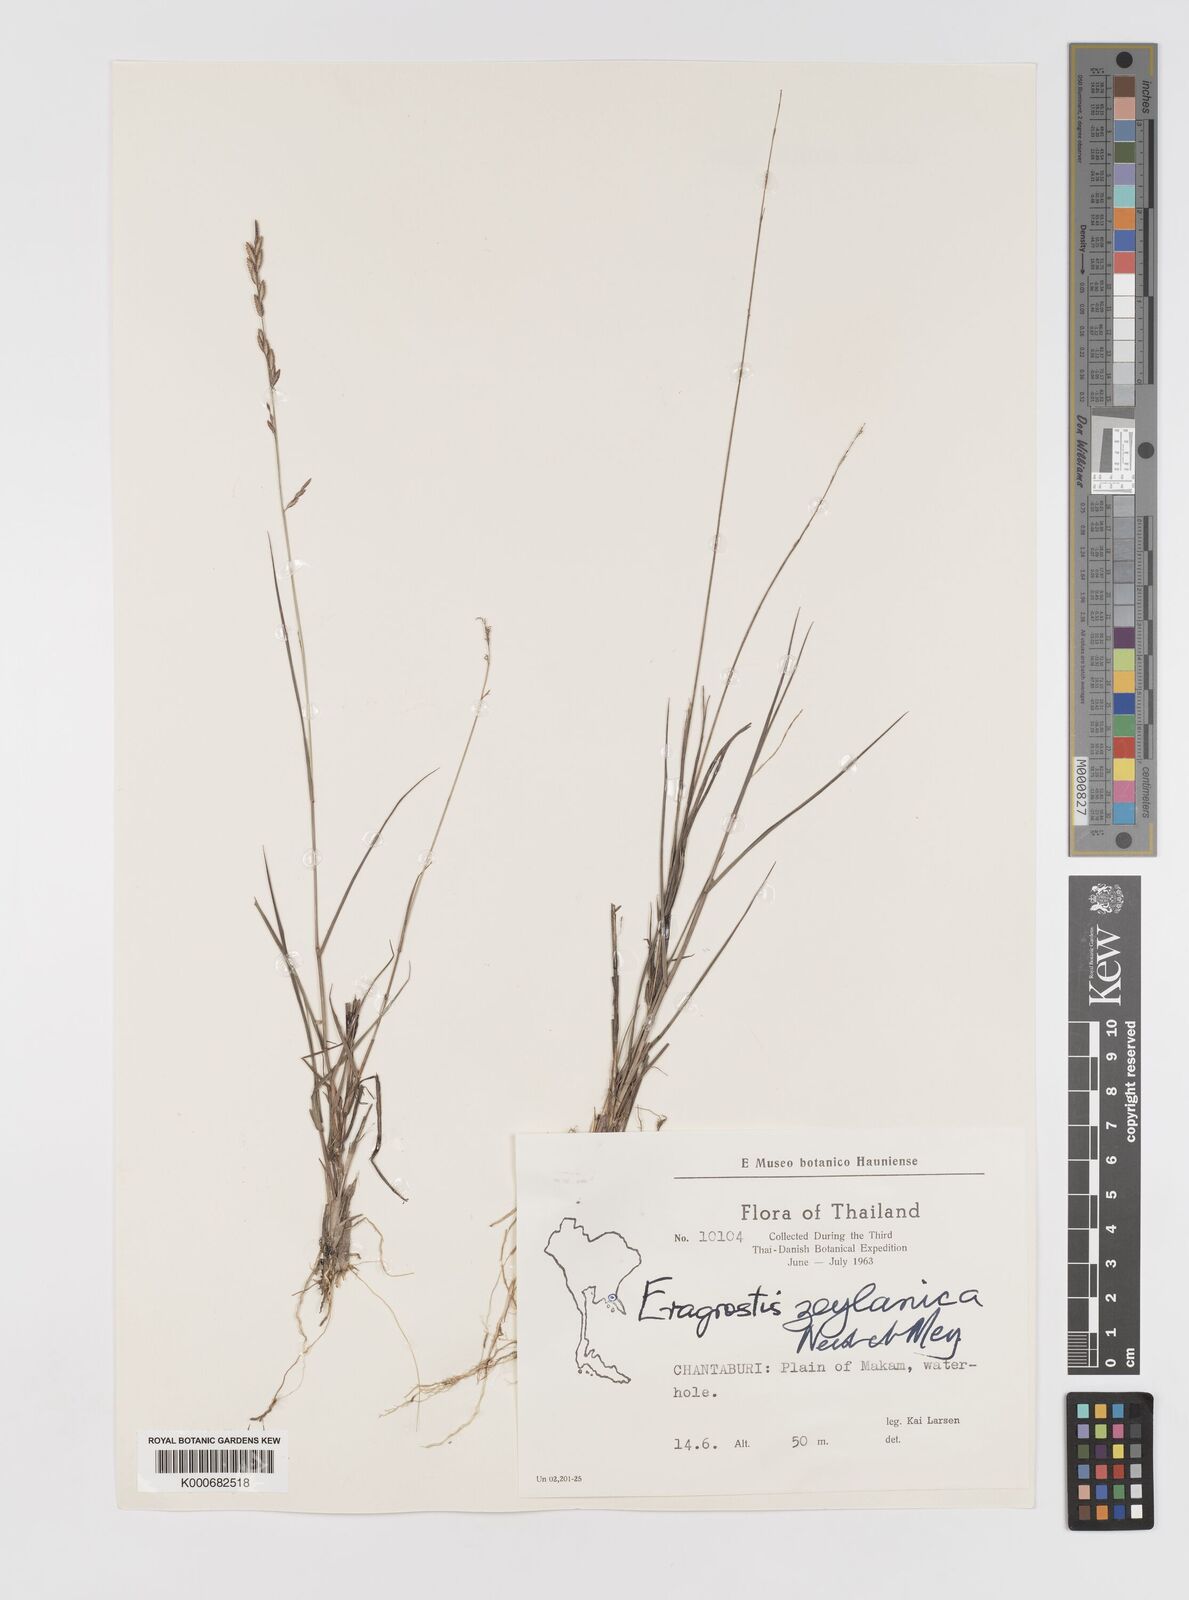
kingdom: Plantae
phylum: Tracheophyta
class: Liliopsida
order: Poales
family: Poaceae
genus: Eragrostis
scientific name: Eragrostis brownii
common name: Lovegrass
